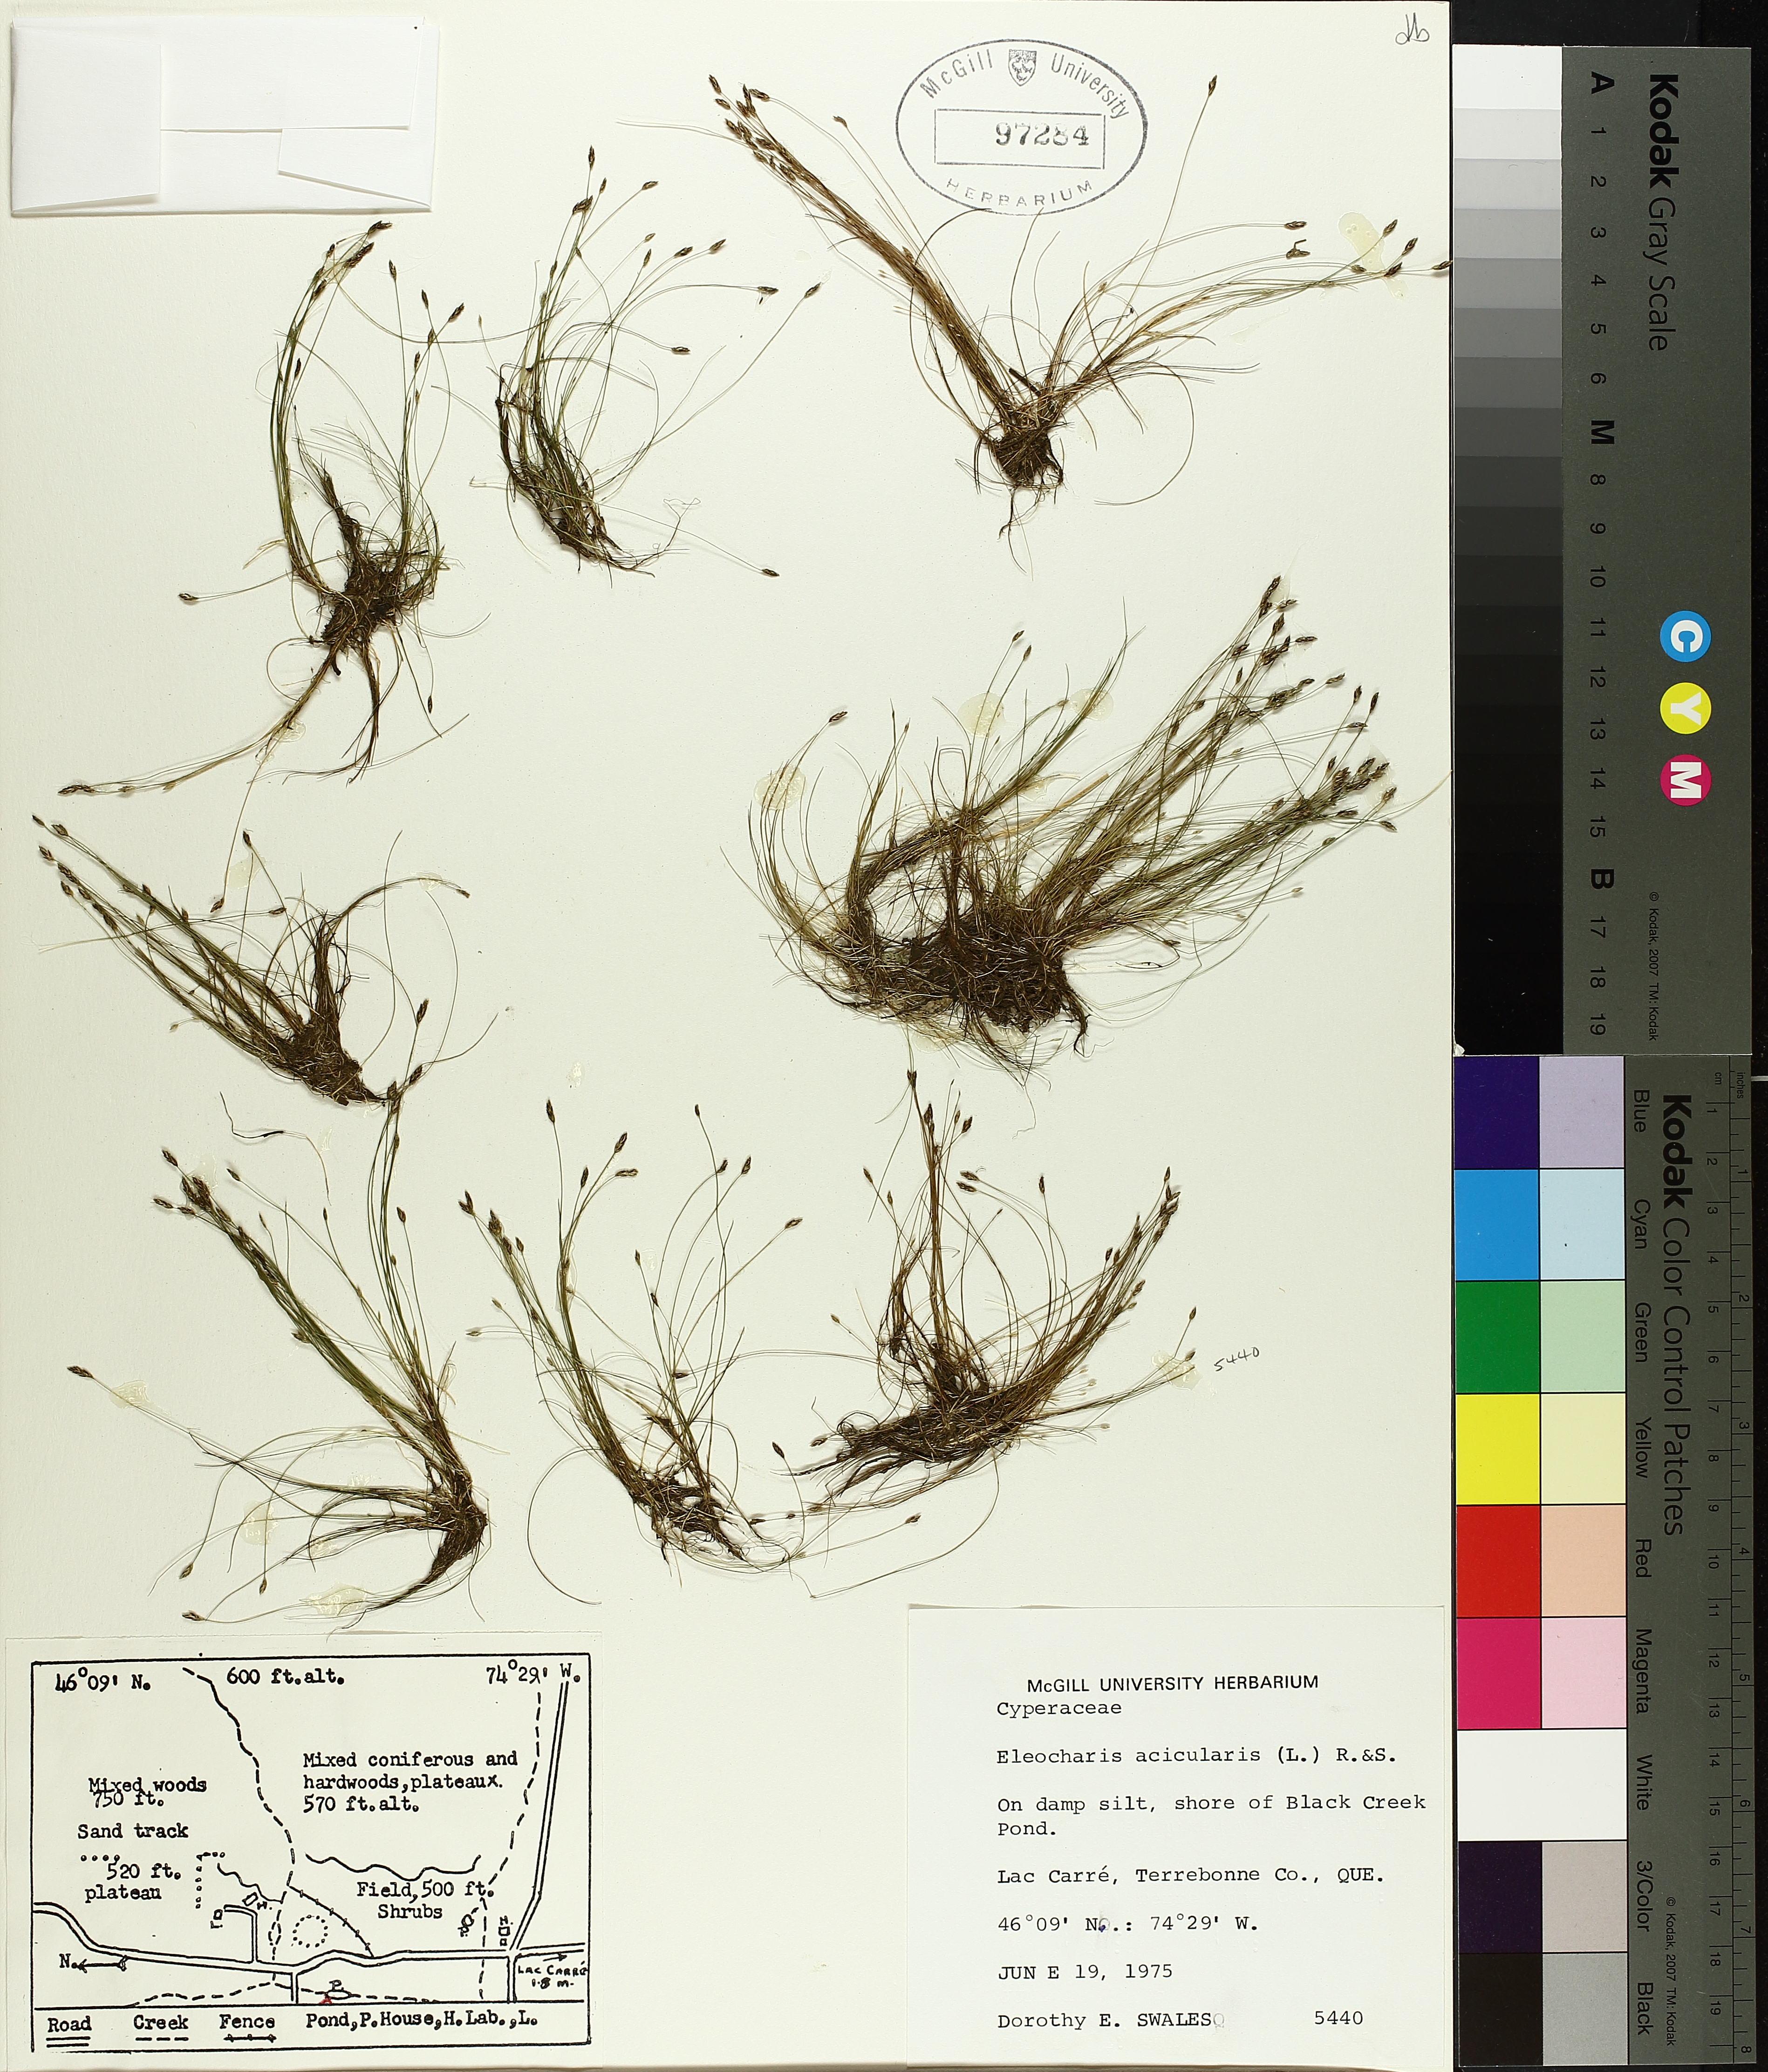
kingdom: Plantae
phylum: Tracheophyta
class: Liliopsida
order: Poales
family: Cyperaceae
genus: Eleocharis
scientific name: Eleocharis acicularis
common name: Needle spike-rush
